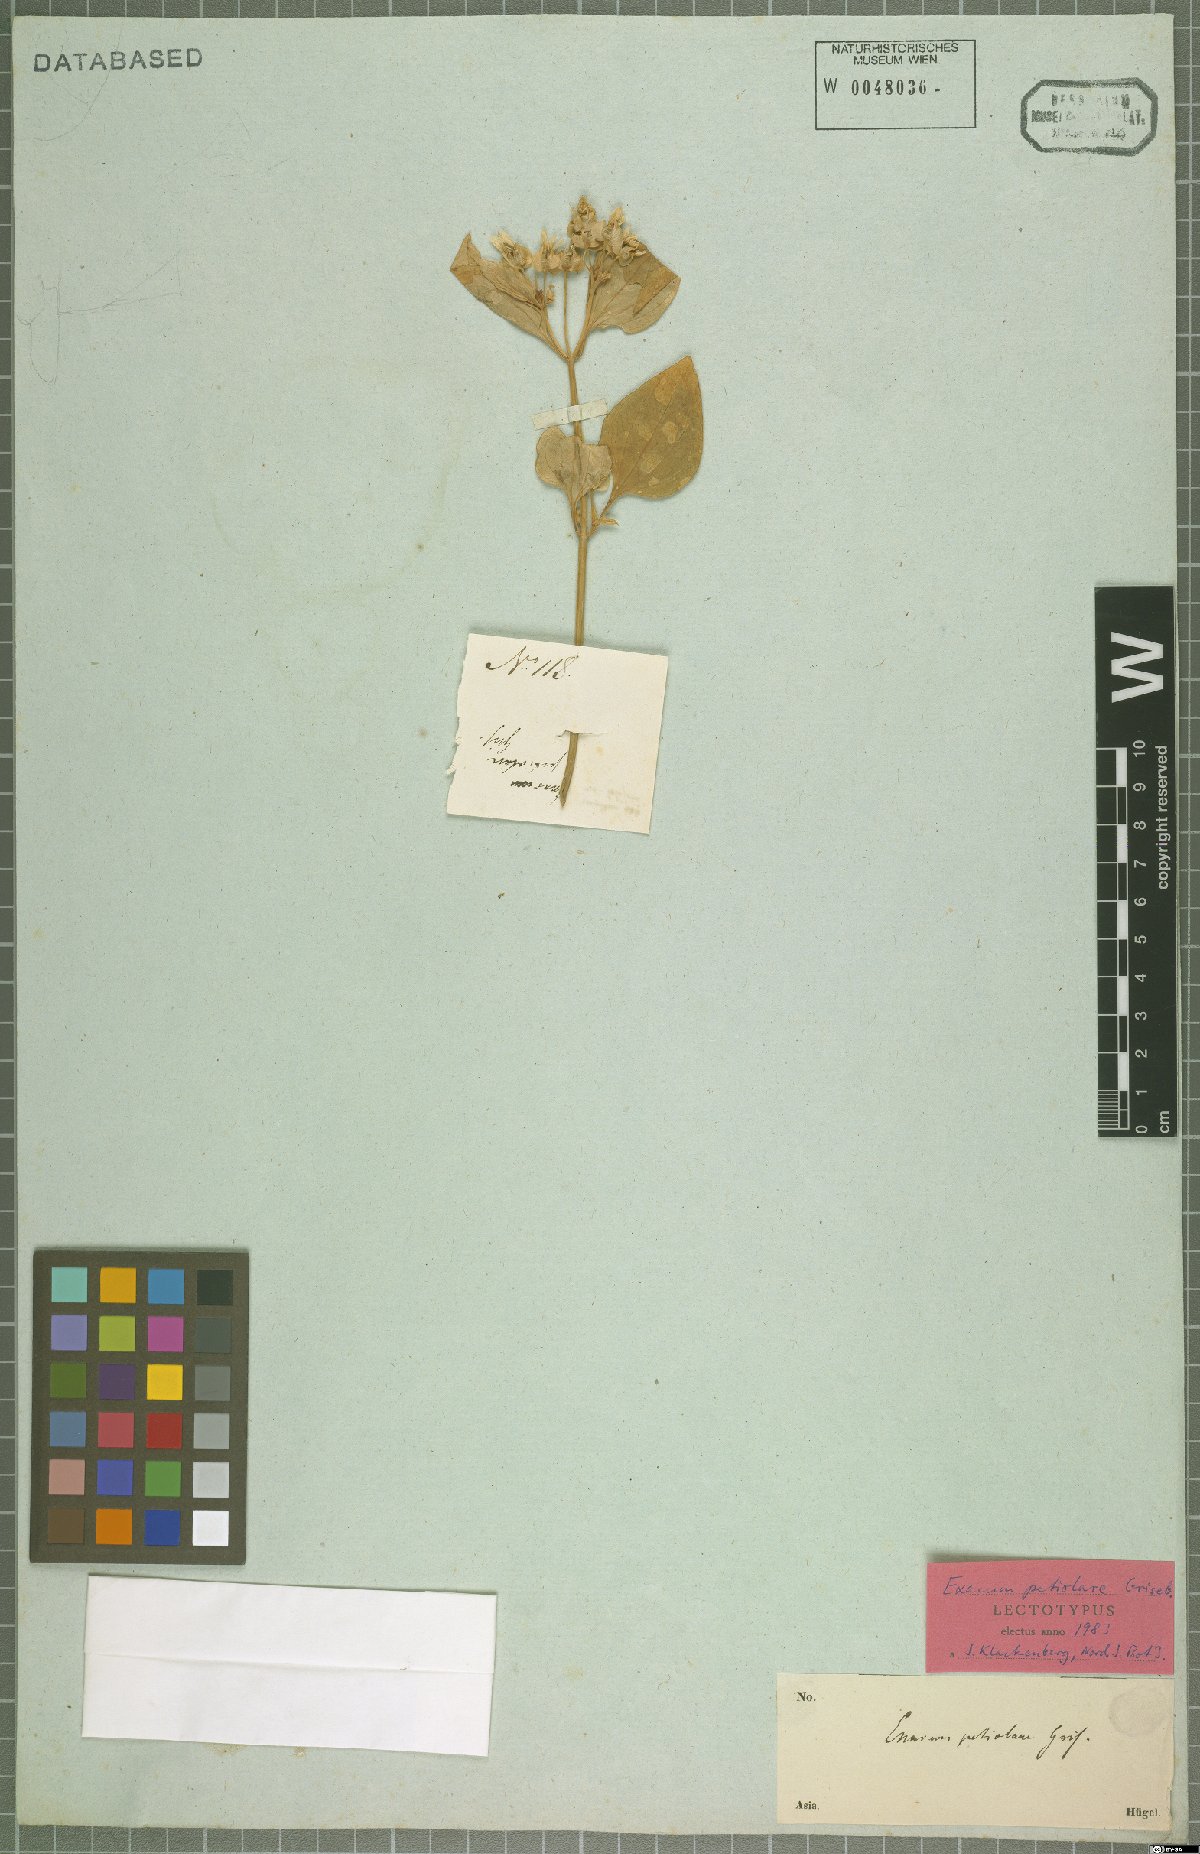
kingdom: Plantae
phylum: Tracheophyta
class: Magnoliopsida
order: Gentianales
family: Gentianaceae
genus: Exacum
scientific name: Exacum petiolare
